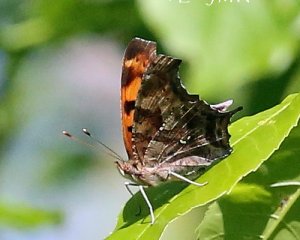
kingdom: Animalia
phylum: Arthropoda
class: Insecta
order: Lepidoptera
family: Nymphalidae
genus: Polygonia
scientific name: Polygonia interrogationis
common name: Question Mark
